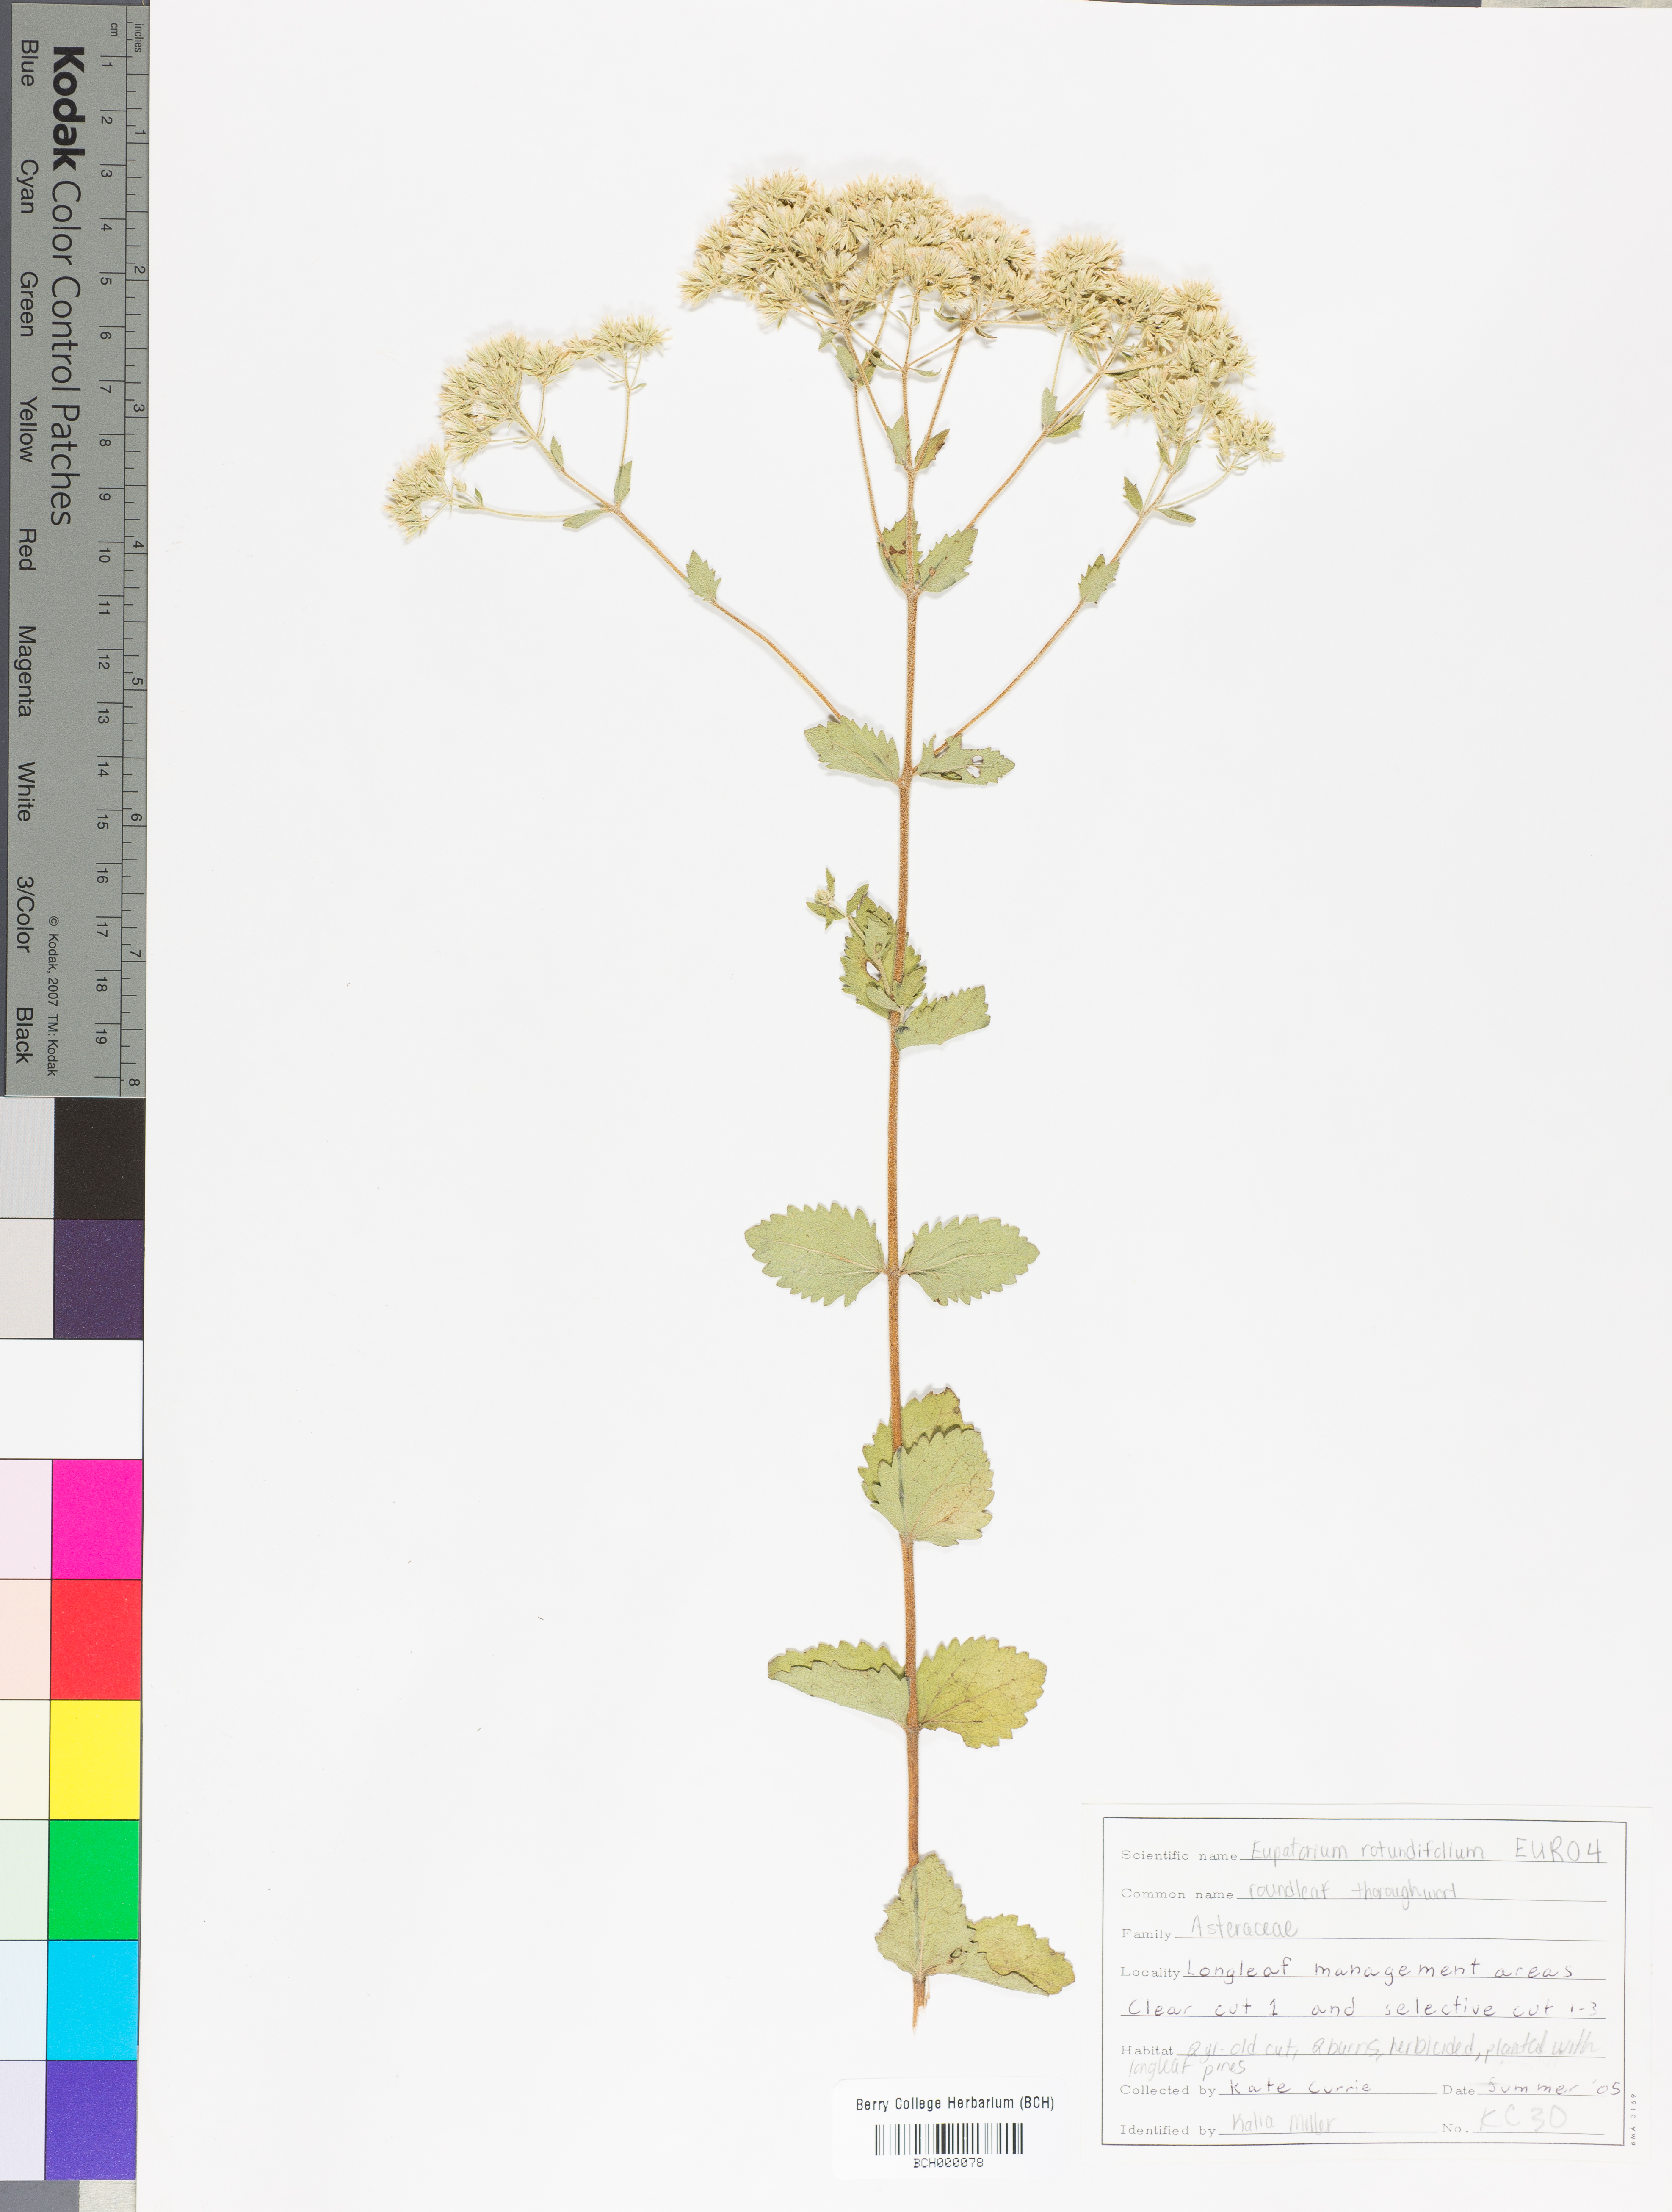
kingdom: Plantae
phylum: Tracheophyta
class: Magnoliopsida
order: Asterales
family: Asteraceae
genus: Eupatorium
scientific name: Eupatorium rotundifolium
